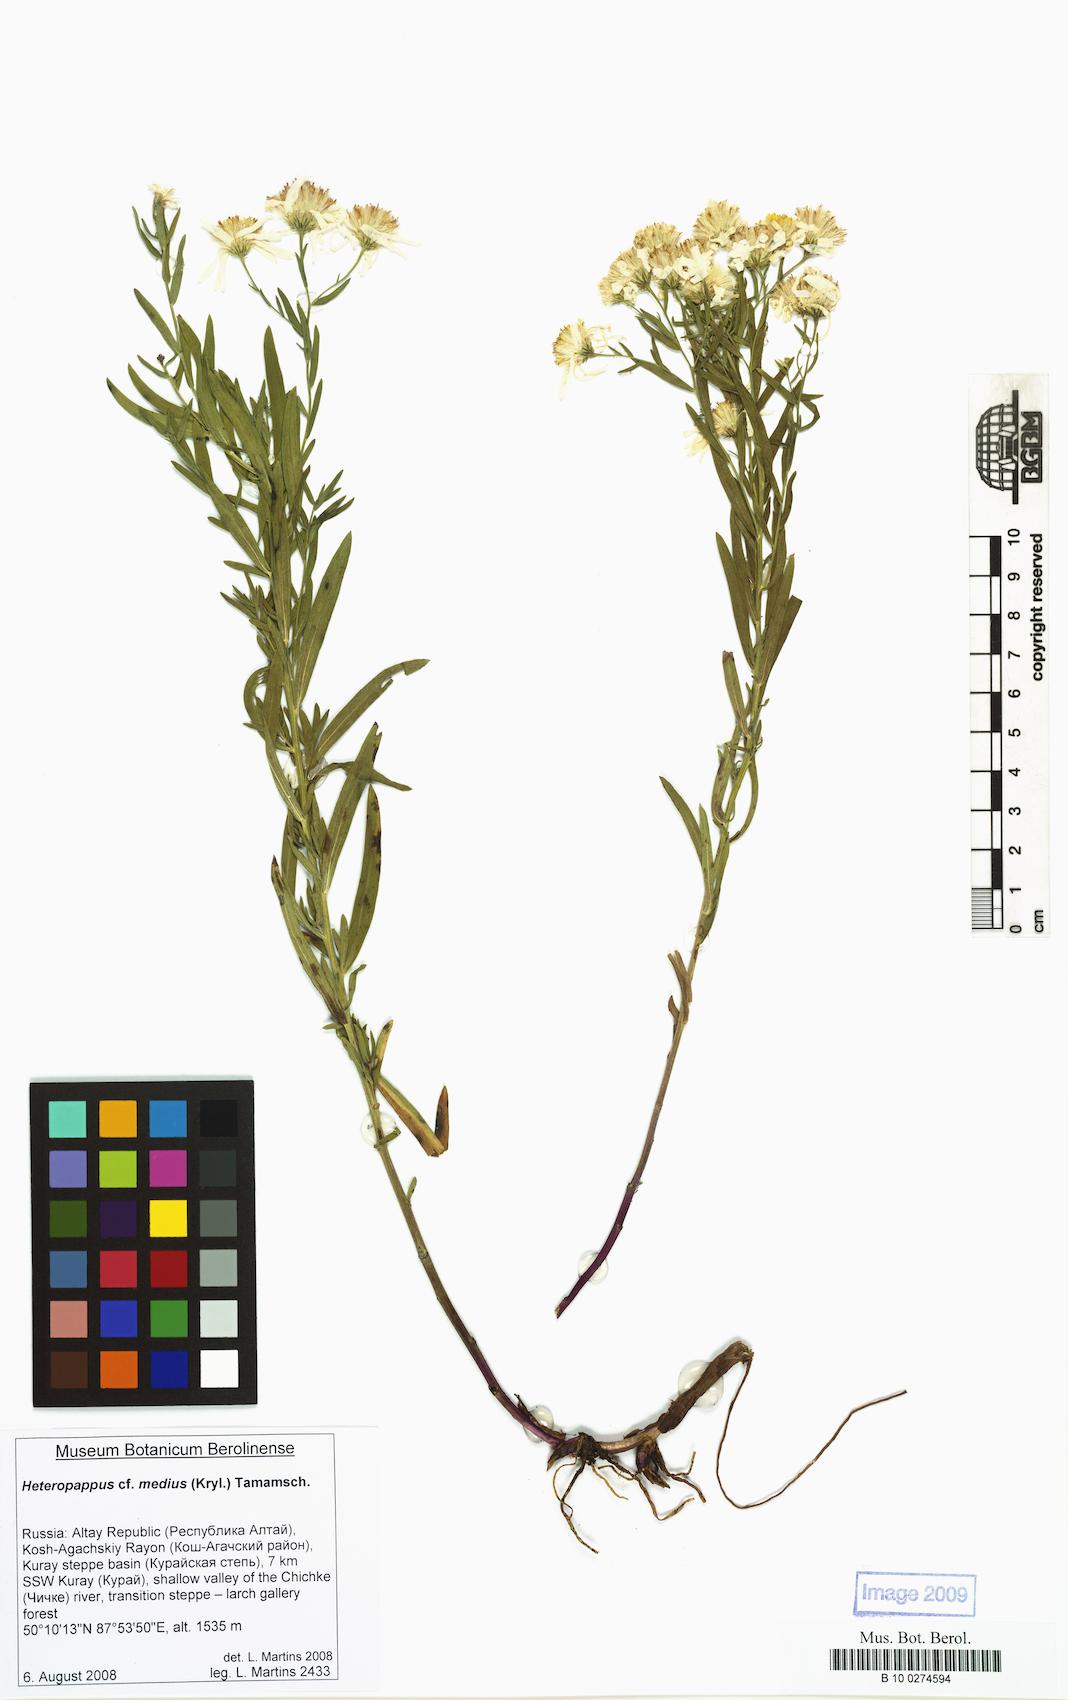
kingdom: Plantae
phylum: Tracheophyta
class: Magnoliopsida
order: Asterales
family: Asteraceae
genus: Heteropappus
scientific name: Heteropappus medius
